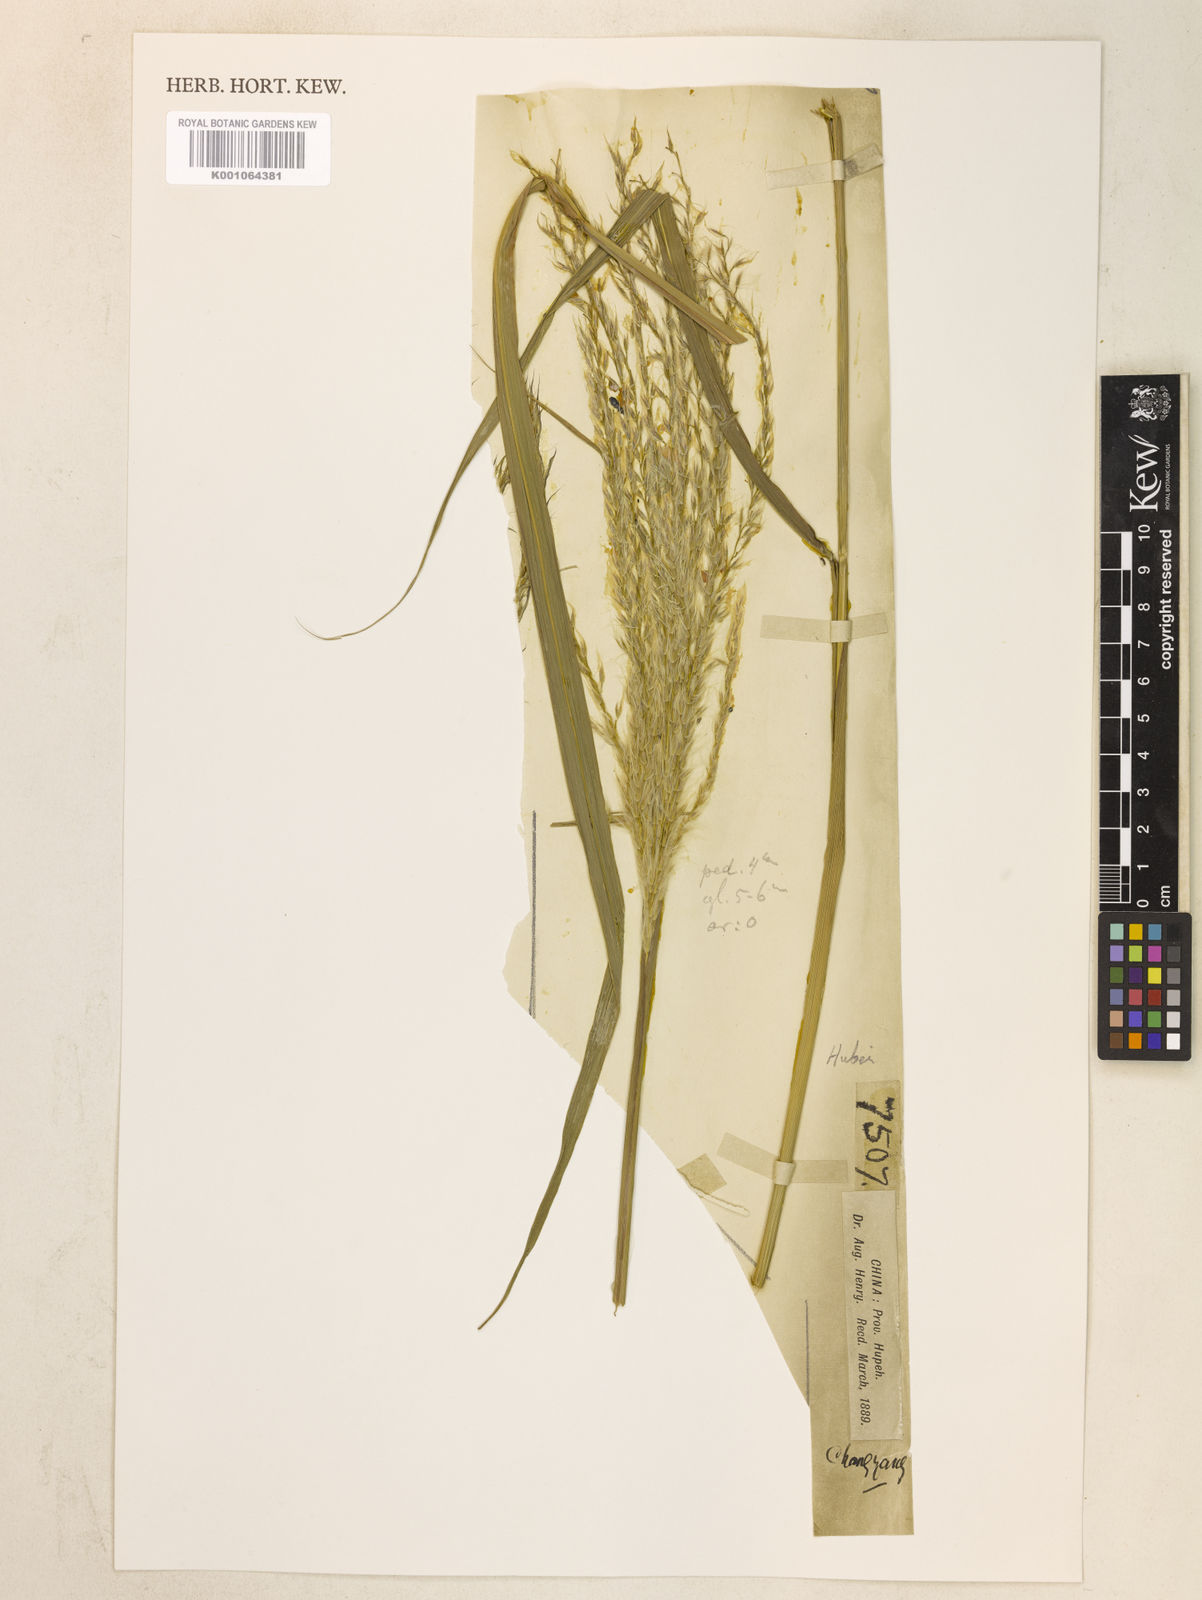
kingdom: Plantae
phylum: Tracheophyta
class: Liliopsida
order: Poales
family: Poaceae
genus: Miscanthus
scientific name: Miscanthus
